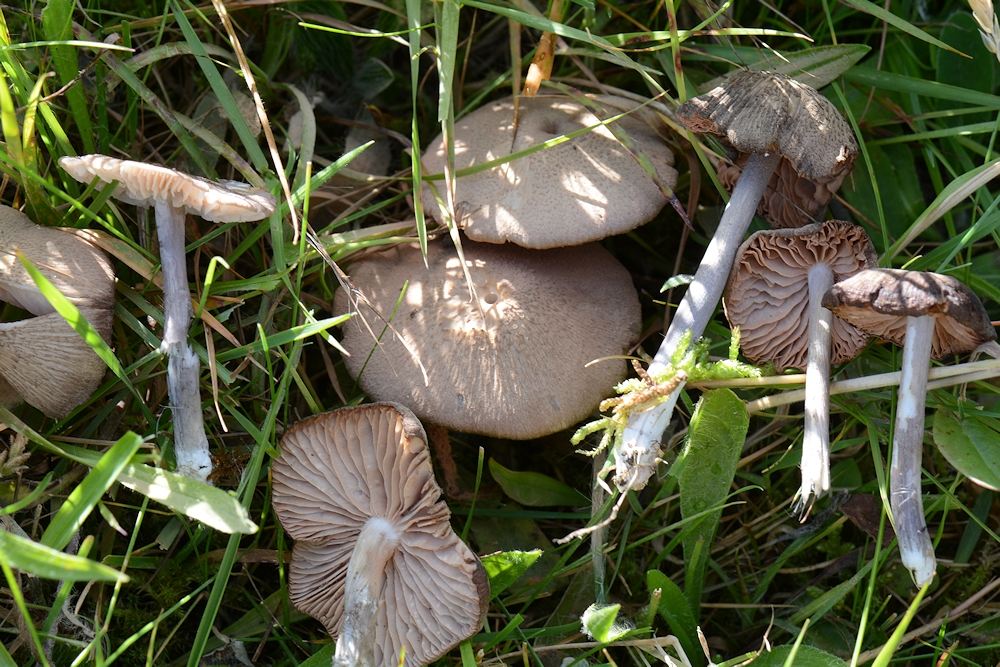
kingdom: Fungi
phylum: Basidiomycota
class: Agaricomycetes
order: Agaricales
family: Entolomataceae
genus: Entoloma
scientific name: Entoloma griseocyaneum
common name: gråblå rødblad
